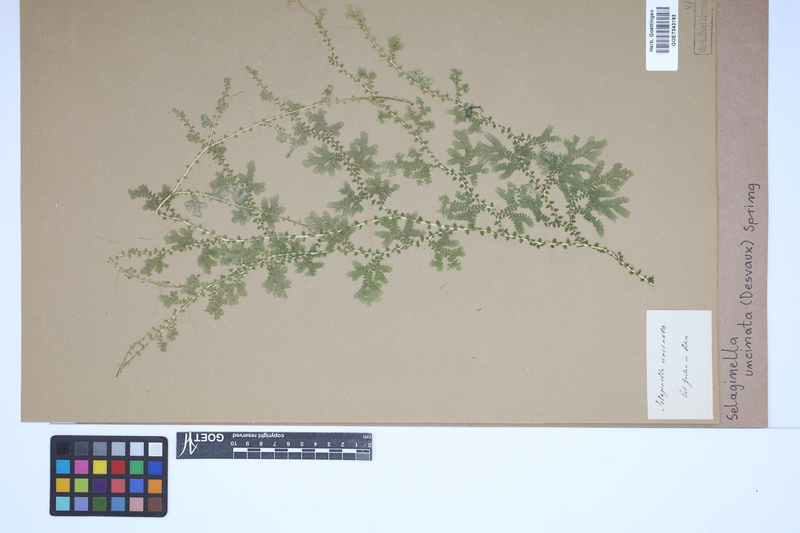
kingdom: Plantae
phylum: Tracheophyta
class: Lycopodiopsida
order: Selaginellales
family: Selaginellaceae
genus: Selaginella
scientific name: Selaginella uncinata
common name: Blue spikemoss
